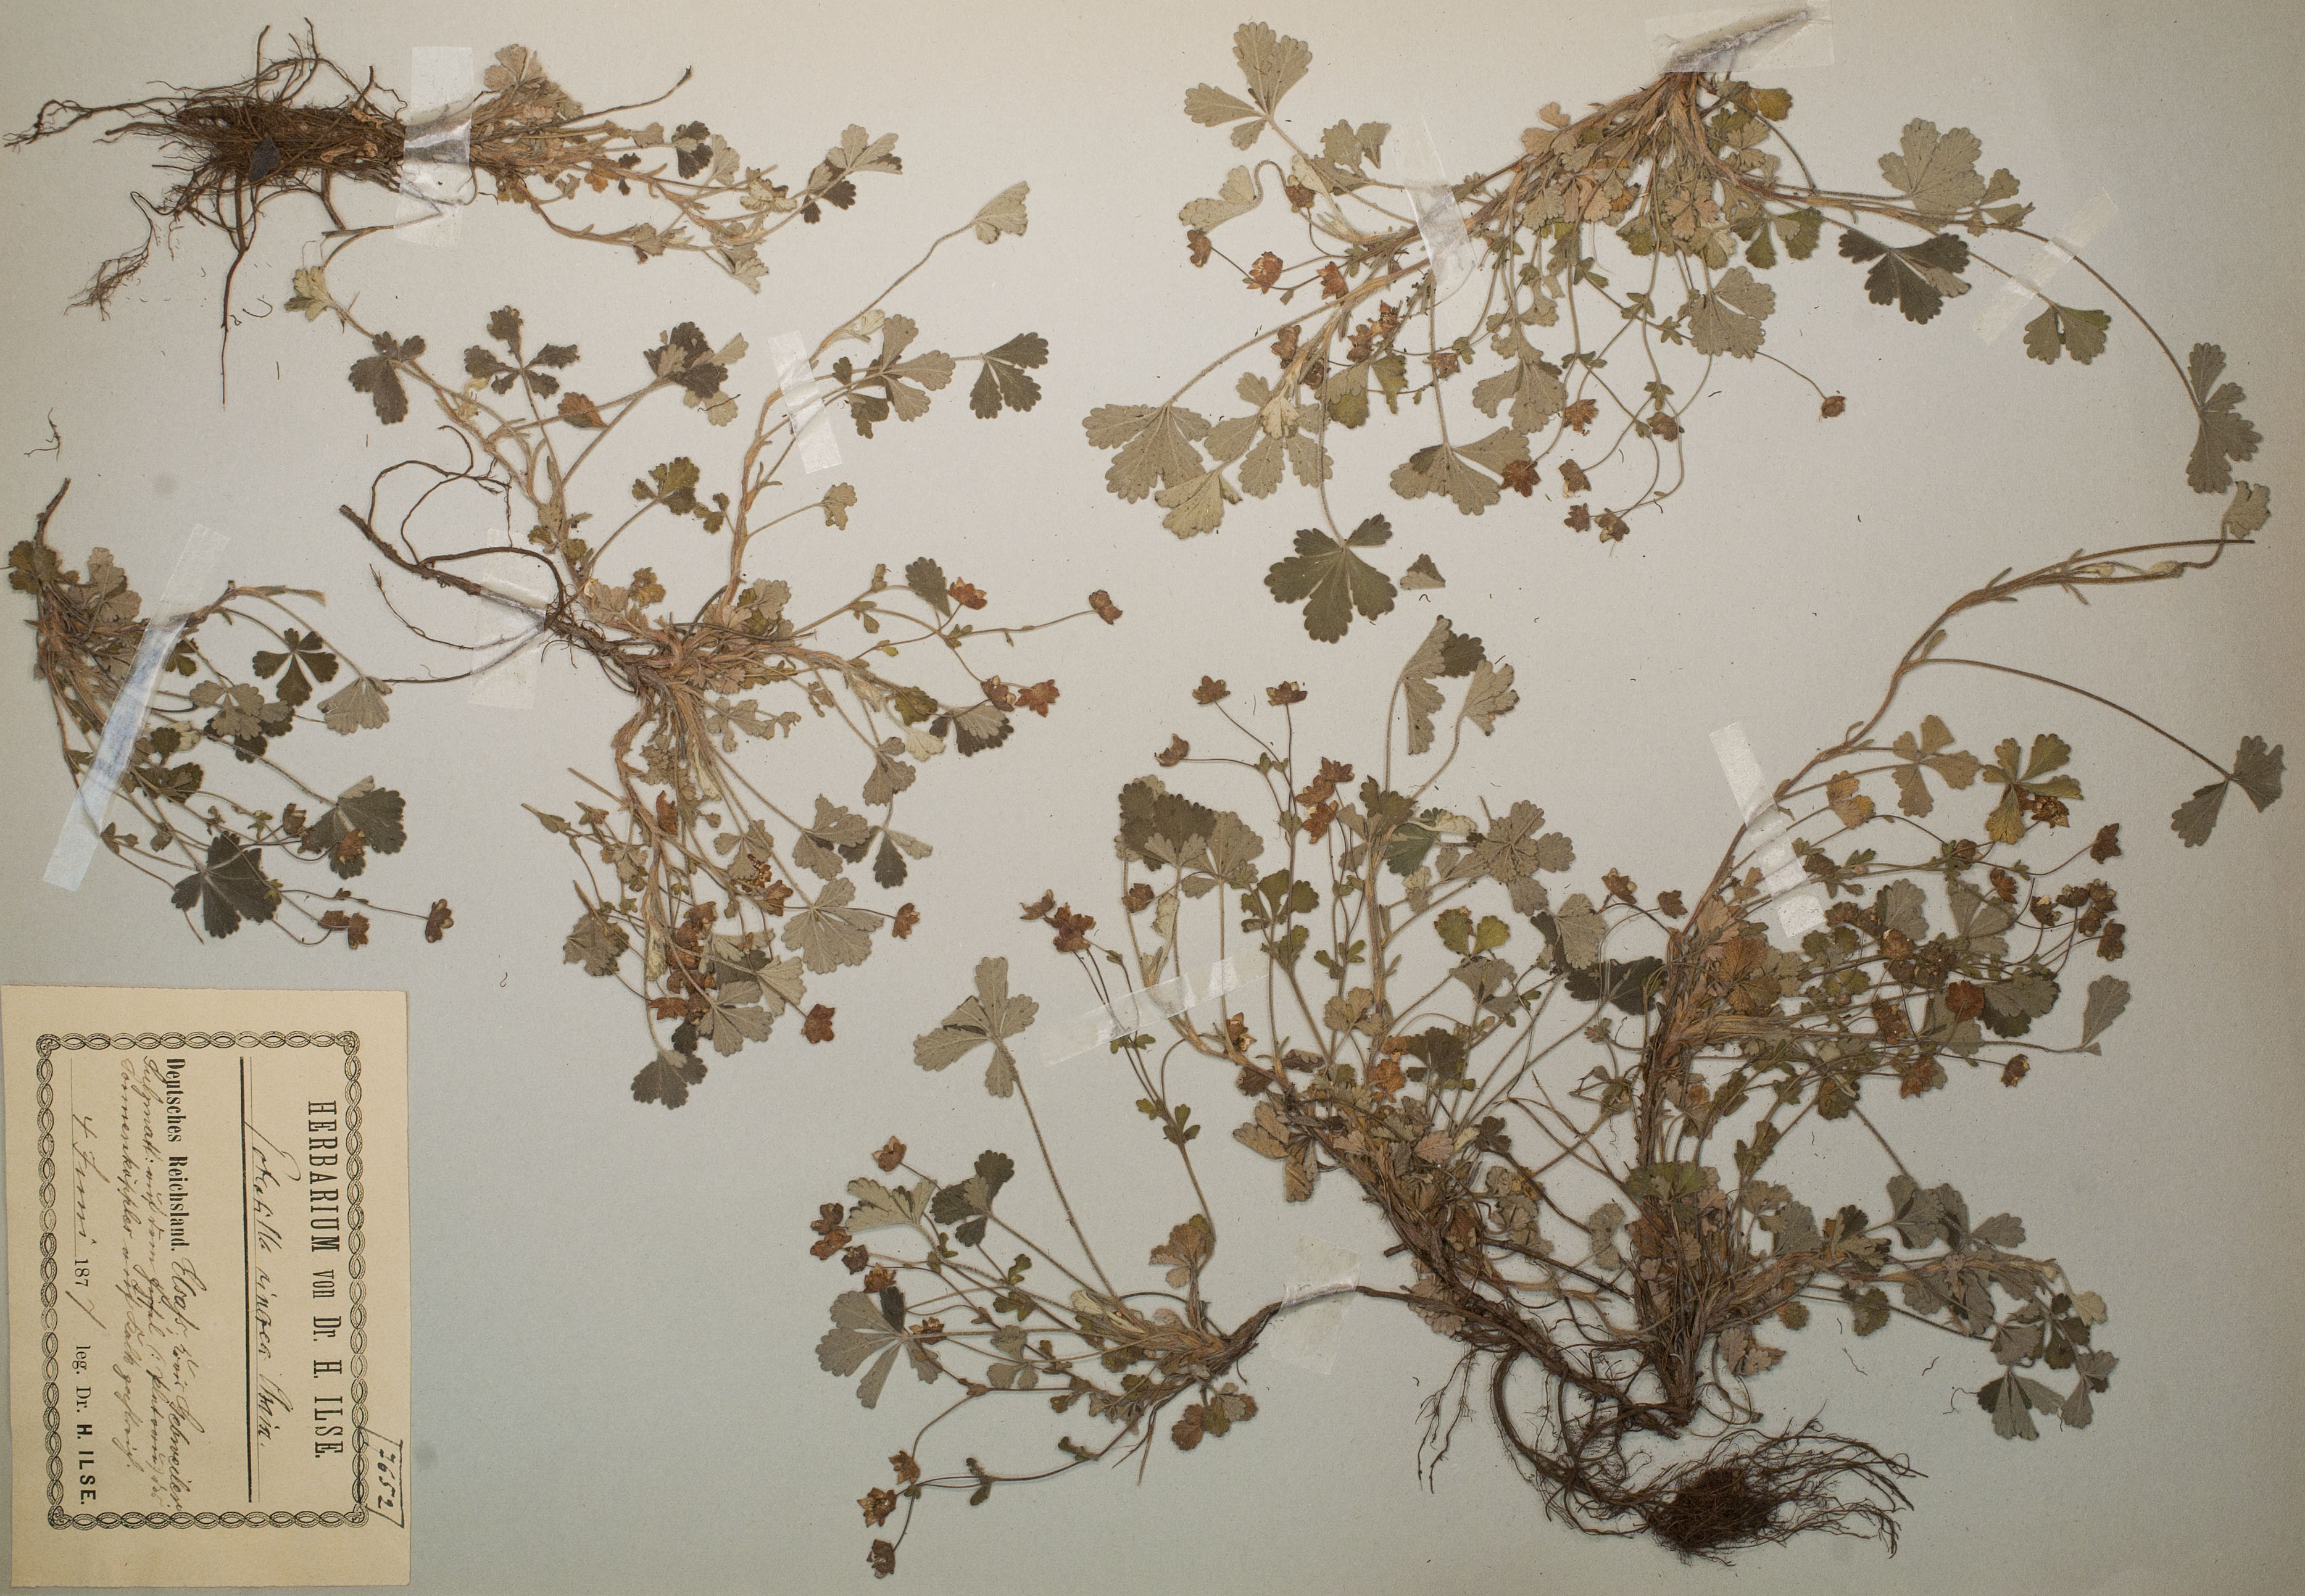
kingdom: Plantae
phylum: Tracheophyta
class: Magnoliopsida
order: Rosales
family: Rosaceae
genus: Potentilla
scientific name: Potentilla cinerea
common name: Ashy cinquefoil
